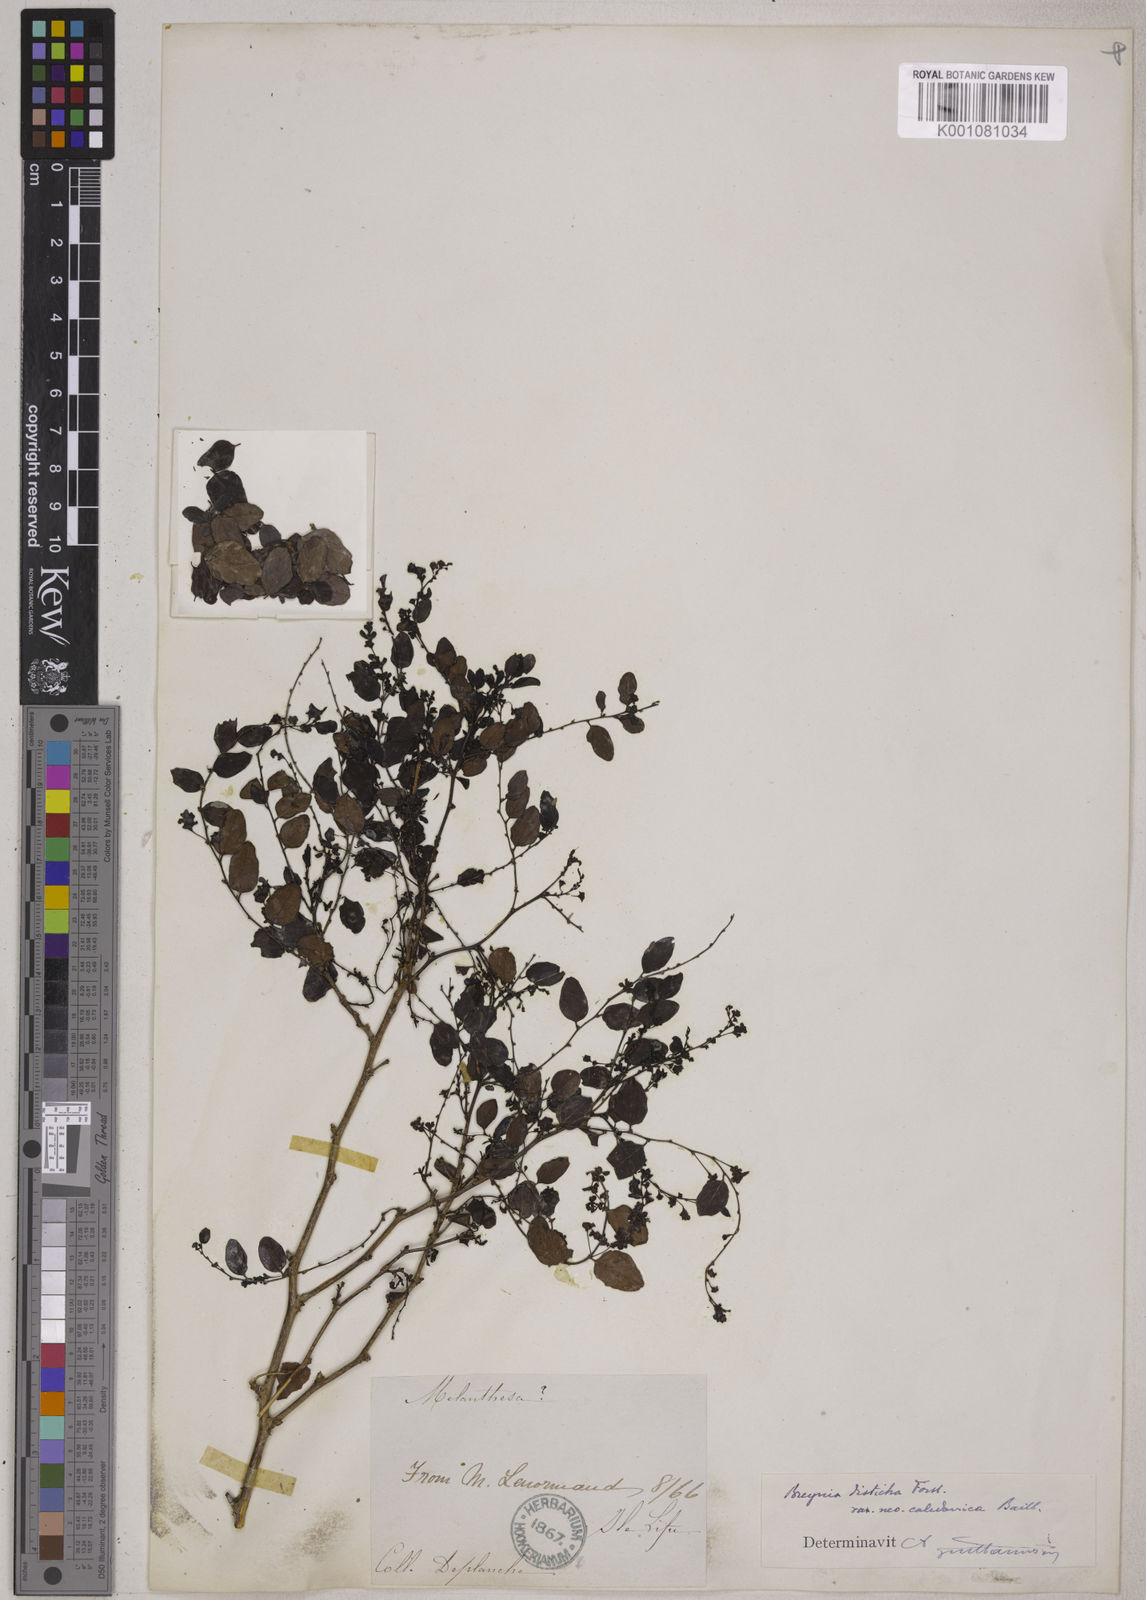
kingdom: Plantae
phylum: Tracheophyta
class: Magnoliopsida
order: Malpighiales
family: Phyllanthaceae
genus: Breynia
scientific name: Breynia disticha
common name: Snowbush
